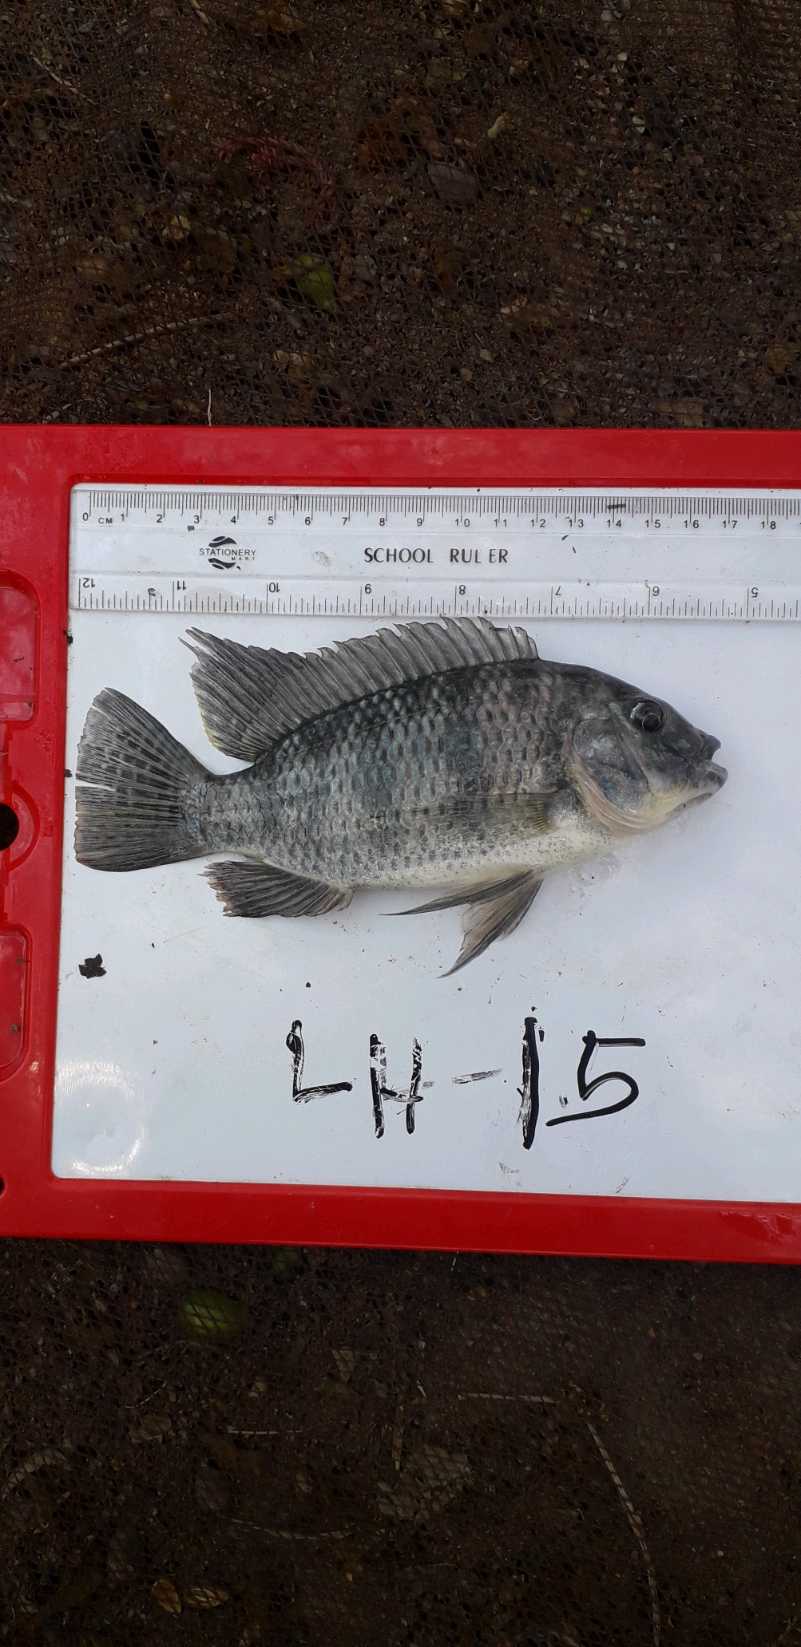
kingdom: Animalia
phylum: Chordata
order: Perciformes
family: Cichlidae
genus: Coptodon
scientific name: Coptodon rendalli
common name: Redbreast tilapia
